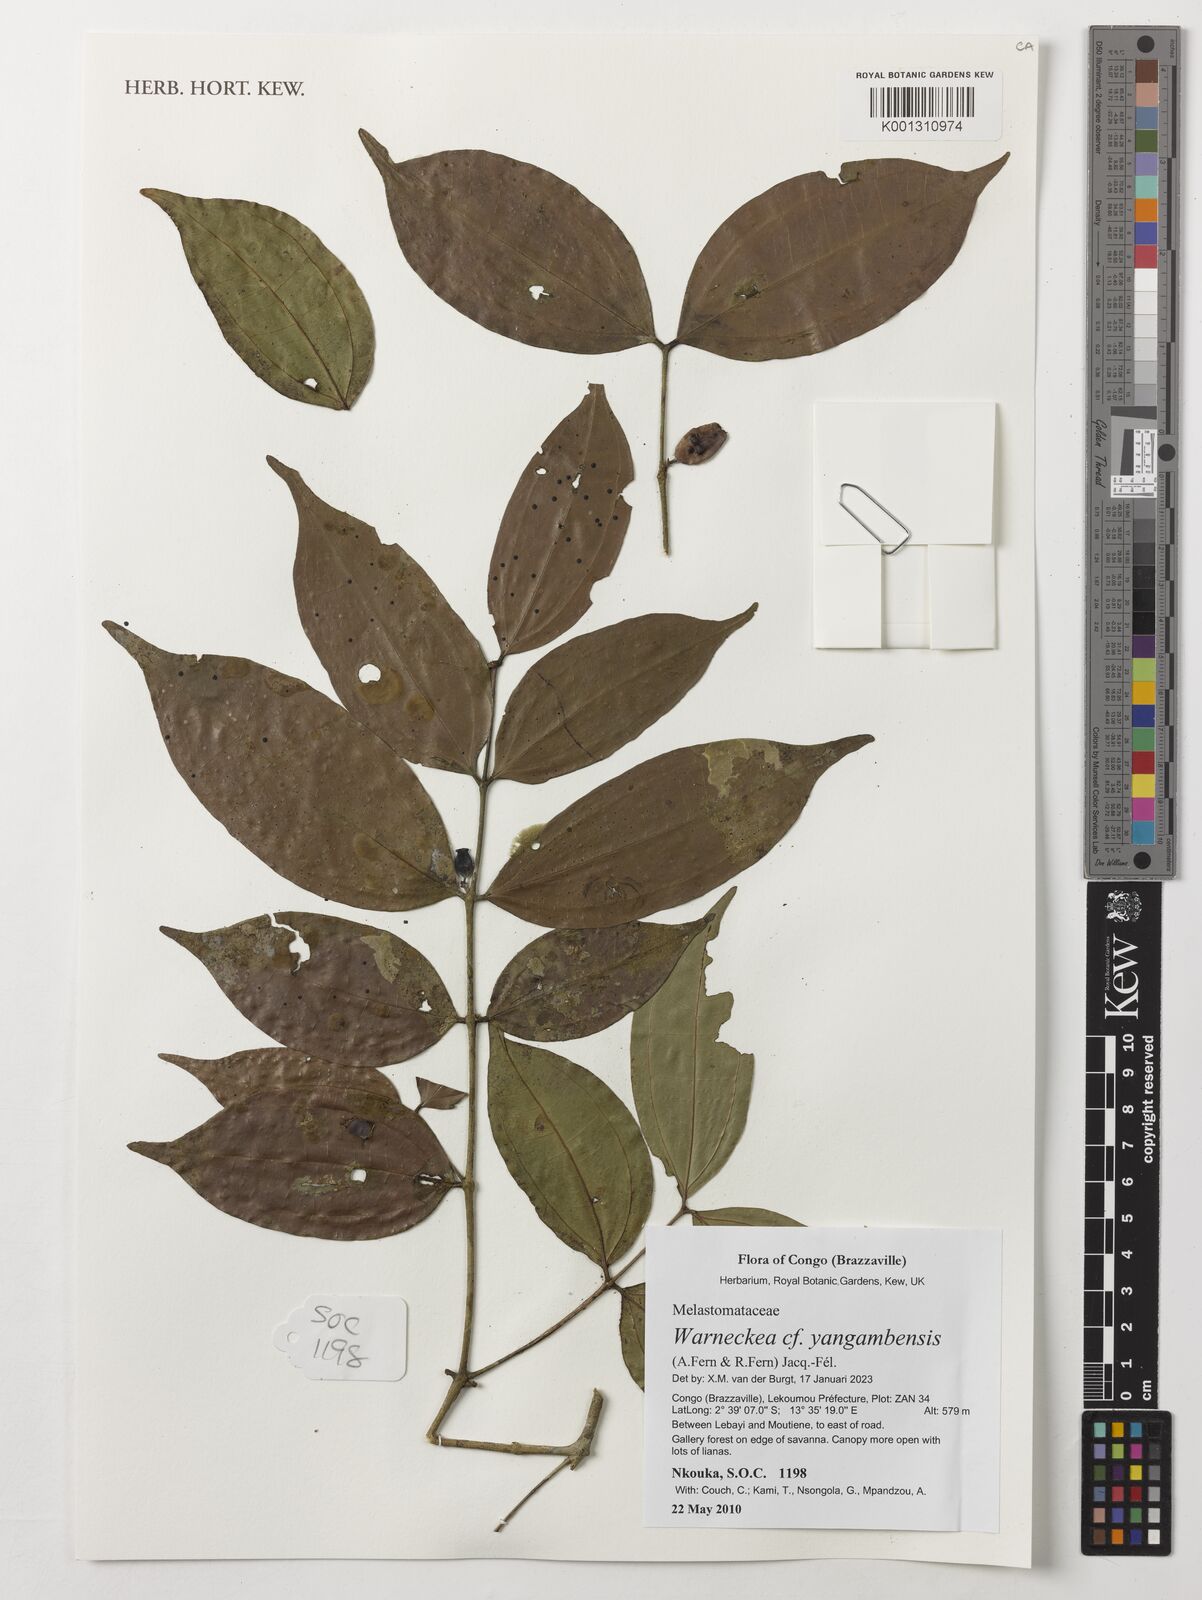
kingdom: Plantae
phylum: Tracheophyta
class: Magnoliopsida
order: Myrtales
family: Melastomataceae
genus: Warneckea
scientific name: Warneckea yangambensis
